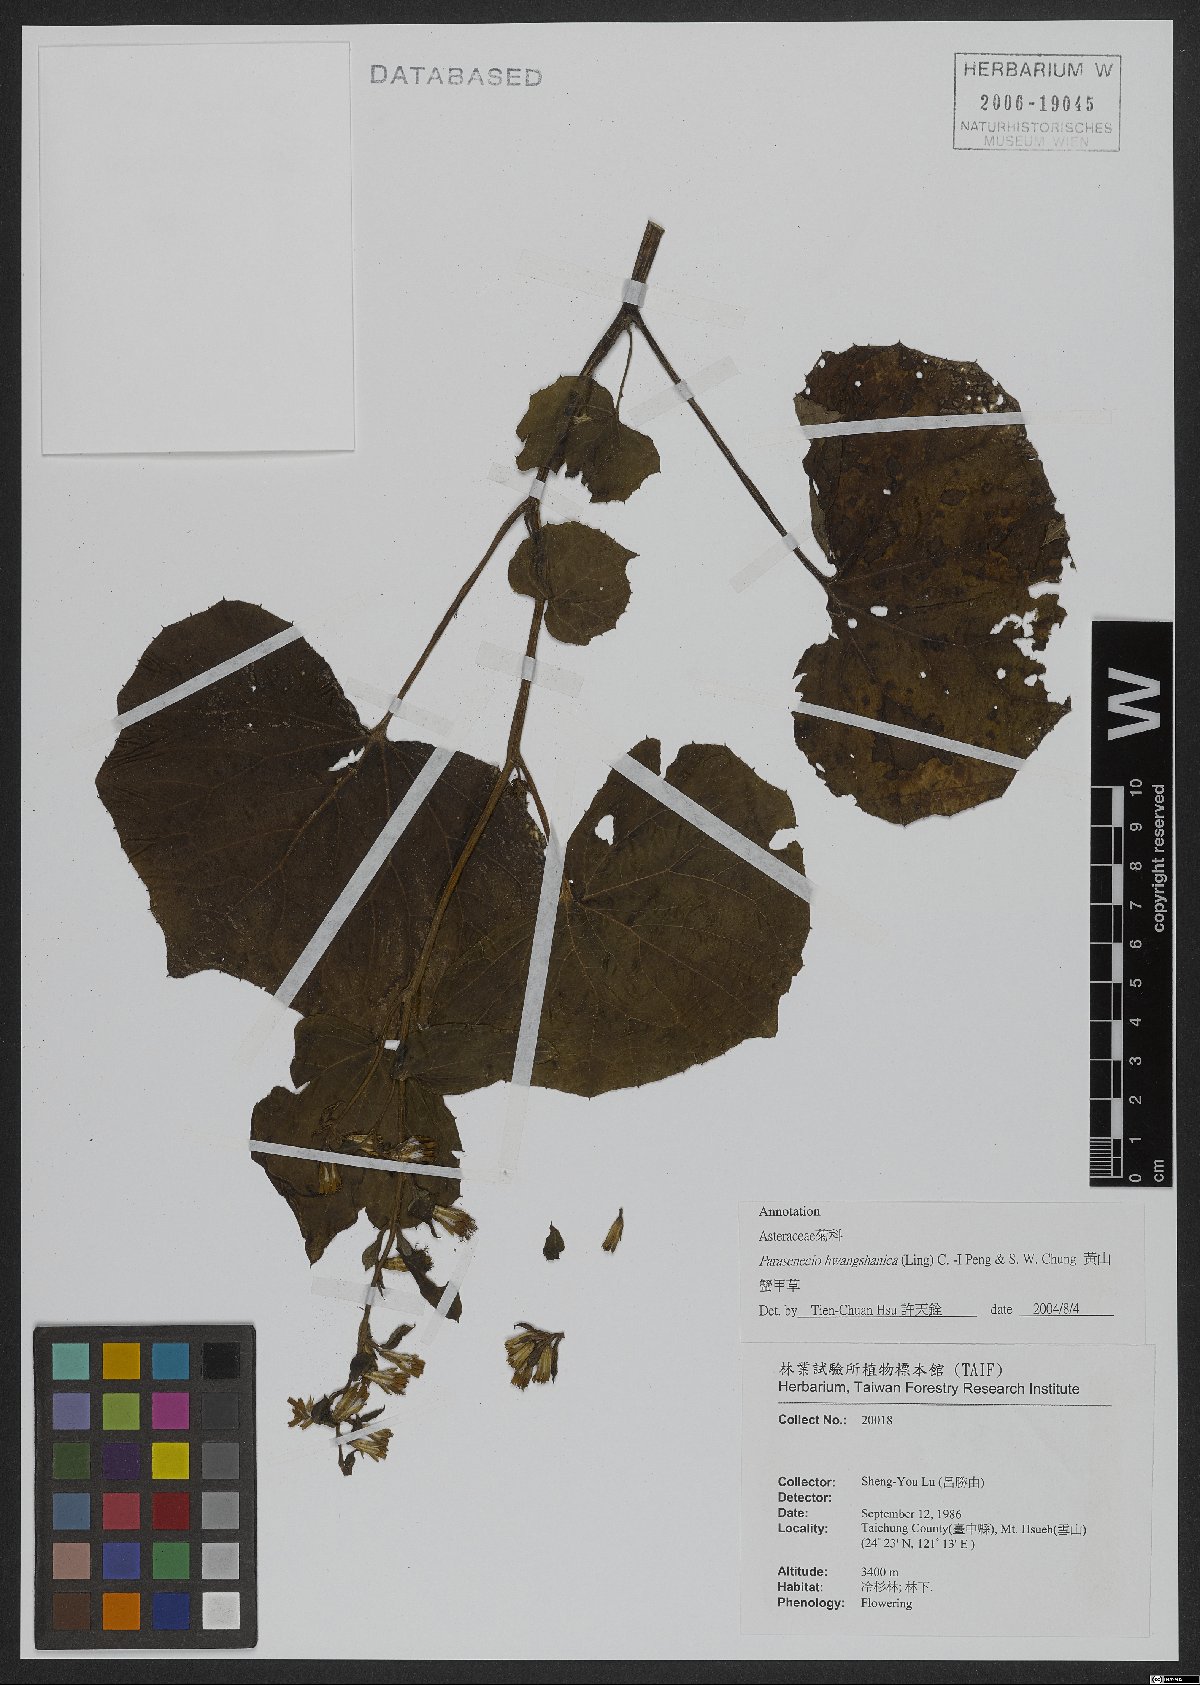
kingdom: Plantae
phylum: Tracheophyta
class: Magnoliopsida
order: Asterales
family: Asteraceae
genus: Parasenecio
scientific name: Parasenecio hwangshanicus
